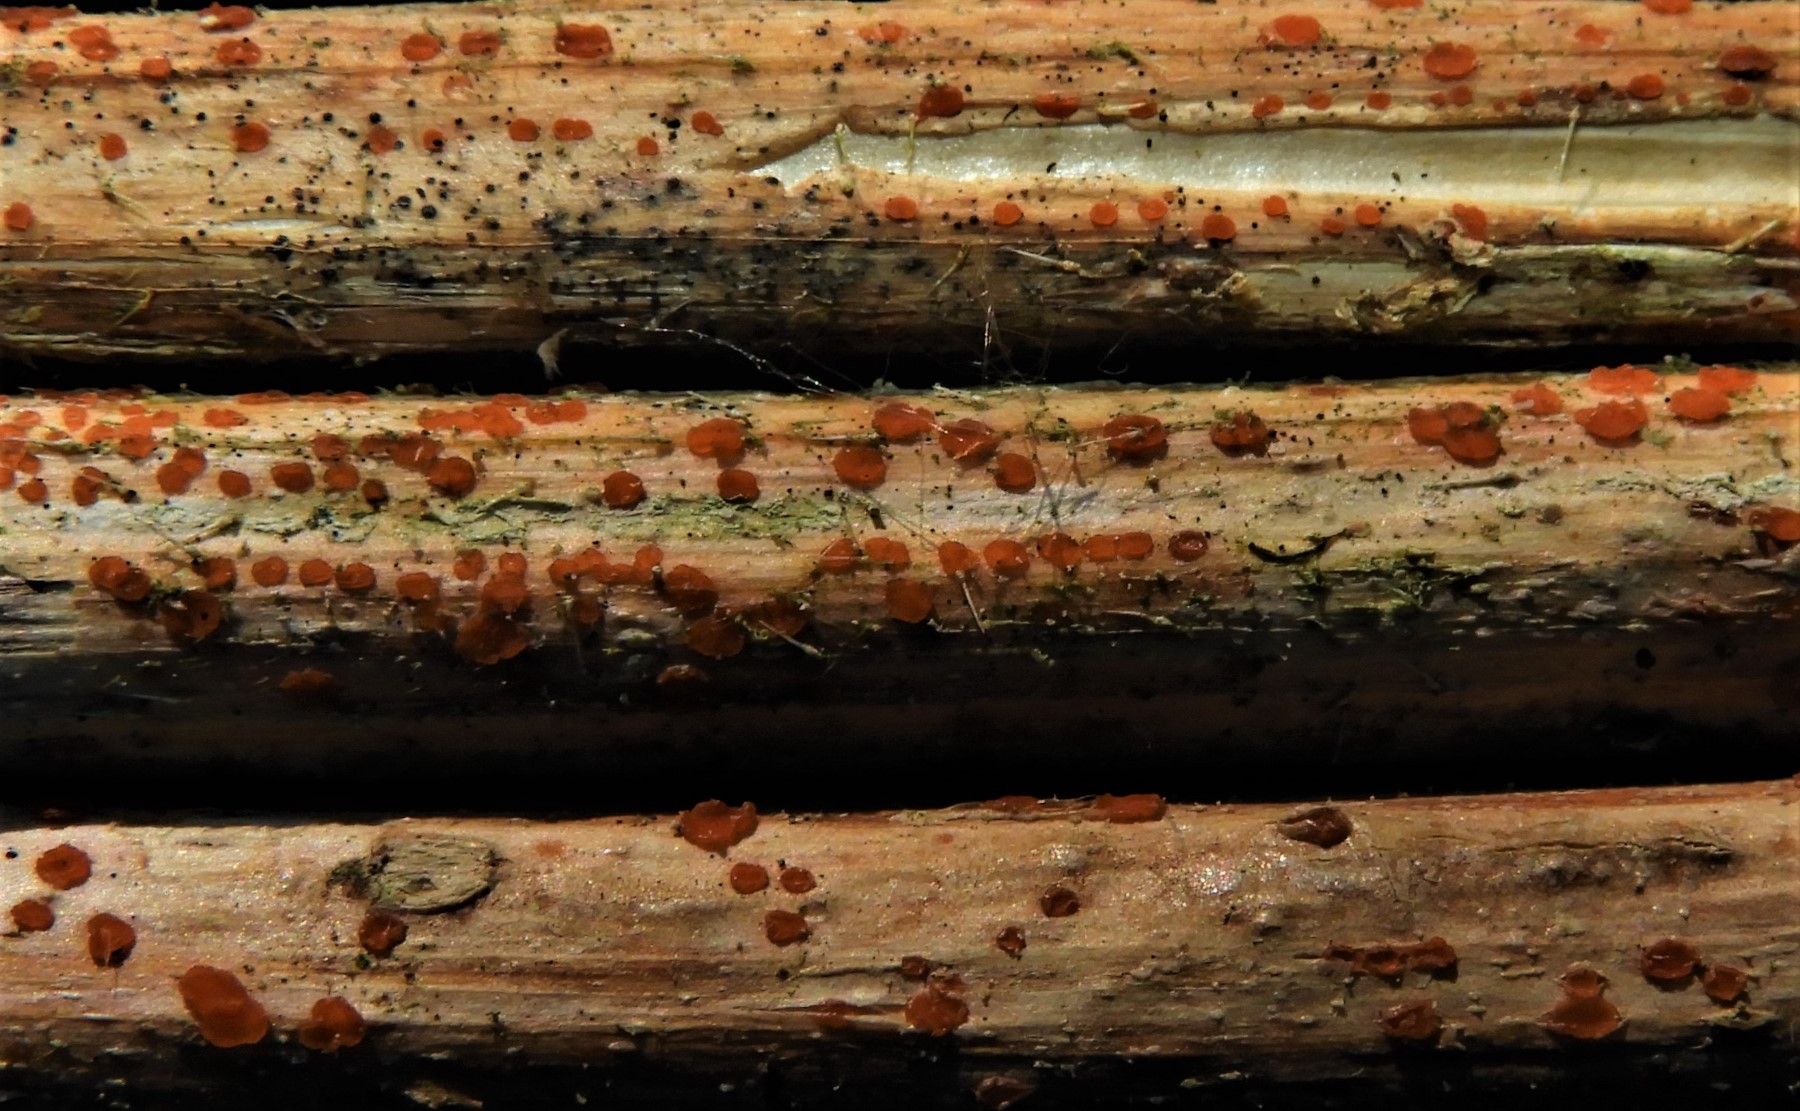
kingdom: Fungi
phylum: Ascomycota
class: Leotiomycetes
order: Helotiales
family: Calloriaceae
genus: Calloria
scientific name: Calloria urticae
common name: nælde-orangeskive
